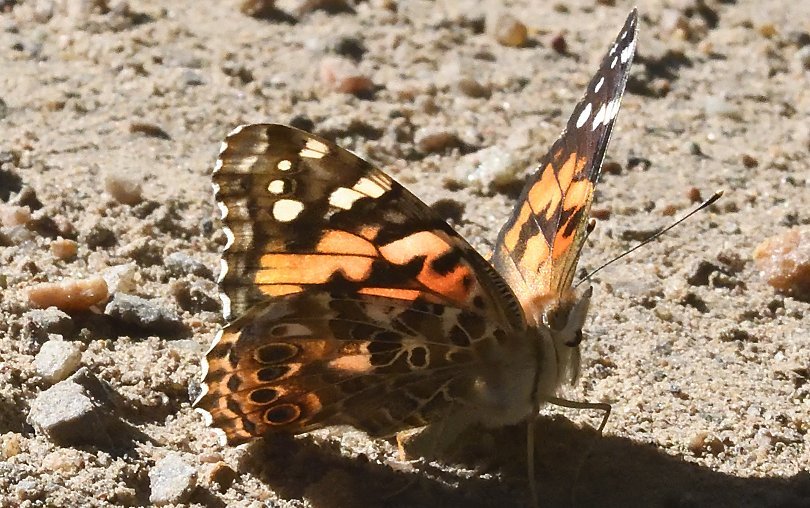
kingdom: Animalia
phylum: Arthropoda
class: Insecta
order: Lepidoptera
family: Nymphalidae
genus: Vanessa
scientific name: Vanessa cardui
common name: Painted Lady
